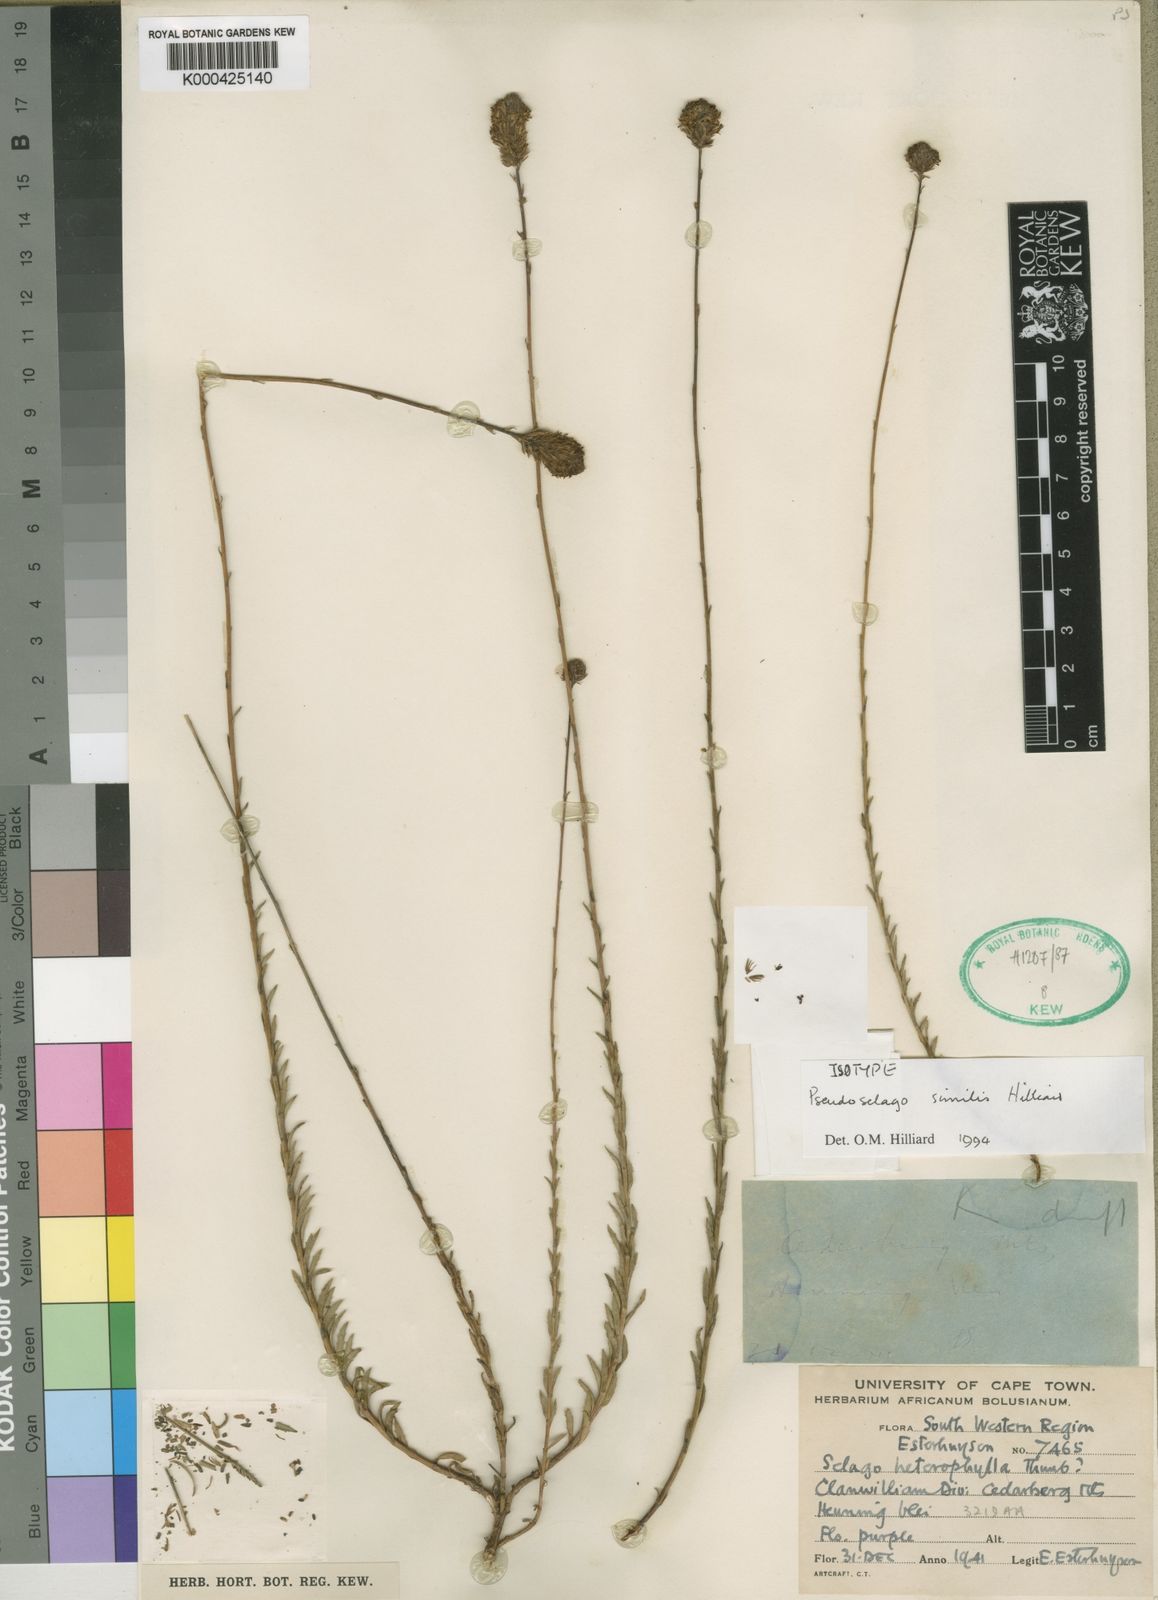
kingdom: Plantae
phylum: Tracheophyta
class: Magnoliopsida
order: Lamiales
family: Scrophulariaceae
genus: Pseudoselago
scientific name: Pseudoselago similis
